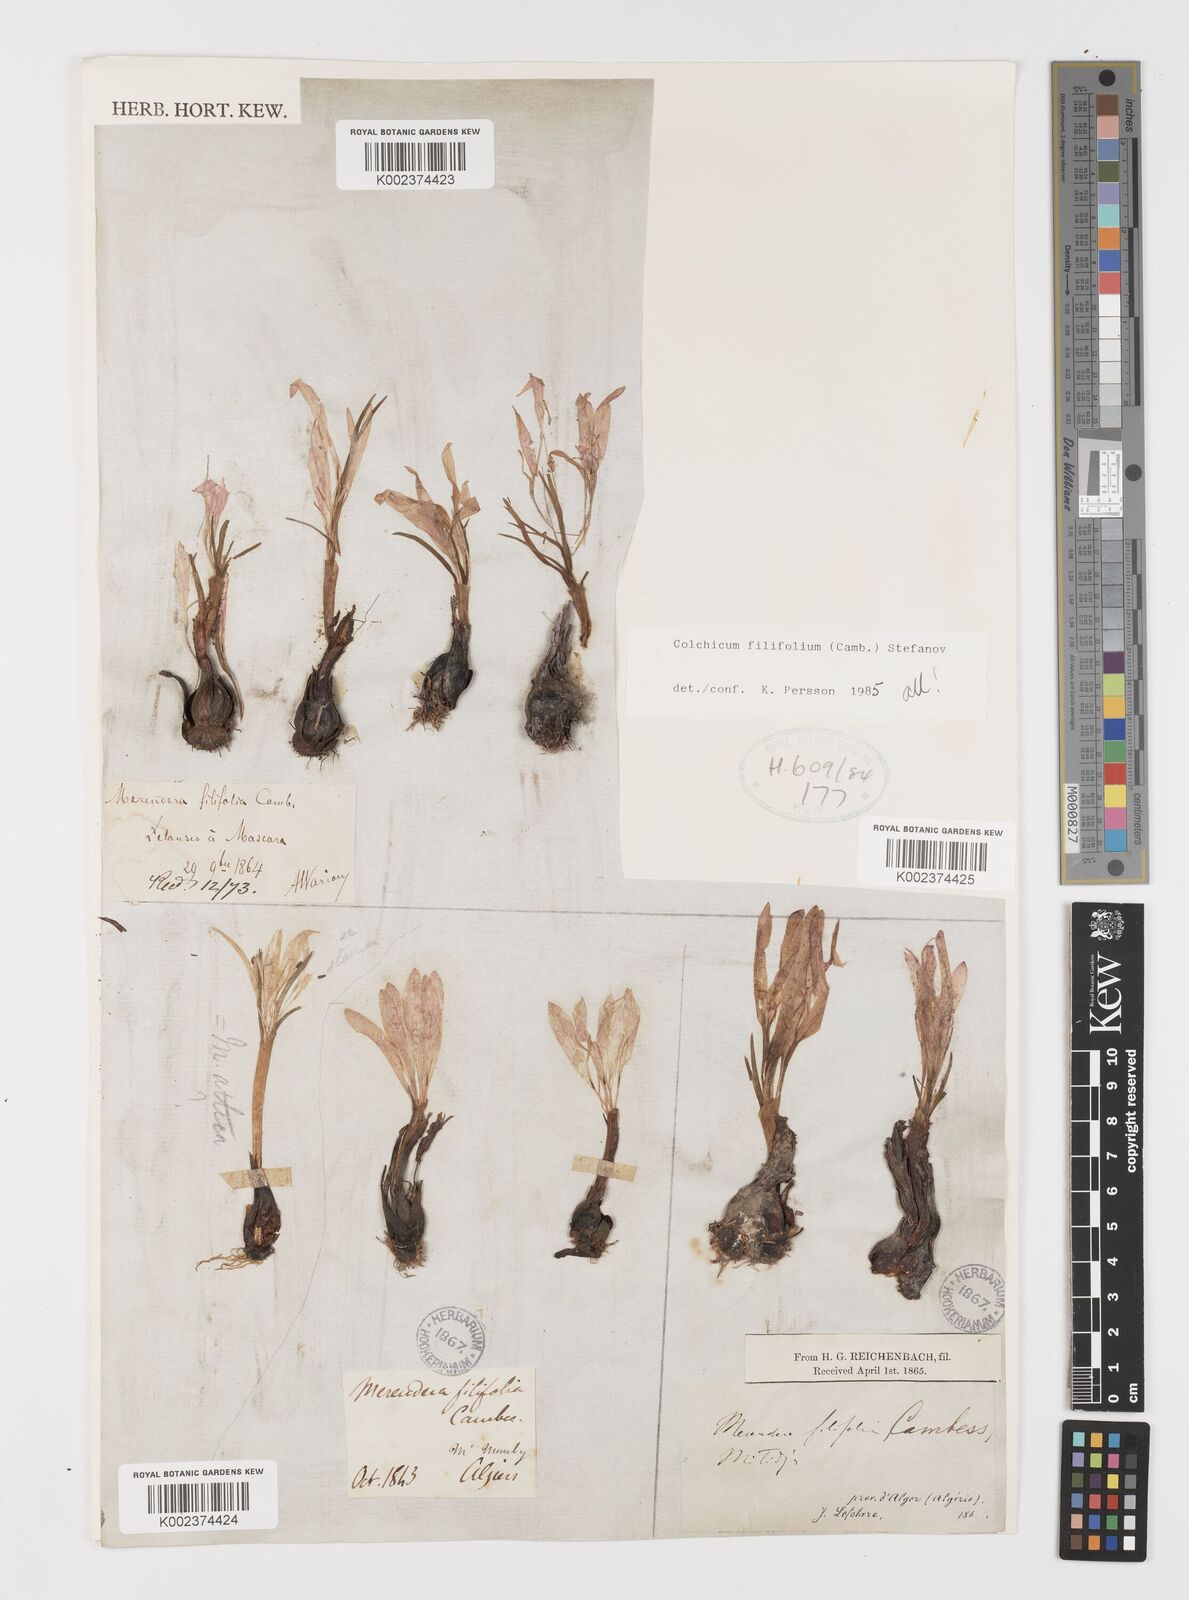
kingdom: Plantae
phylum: Tracheophyta
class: Liliopsida
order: Liliales
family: Colchicaceae
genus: Colchicum
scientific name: Colchicum filifolium
